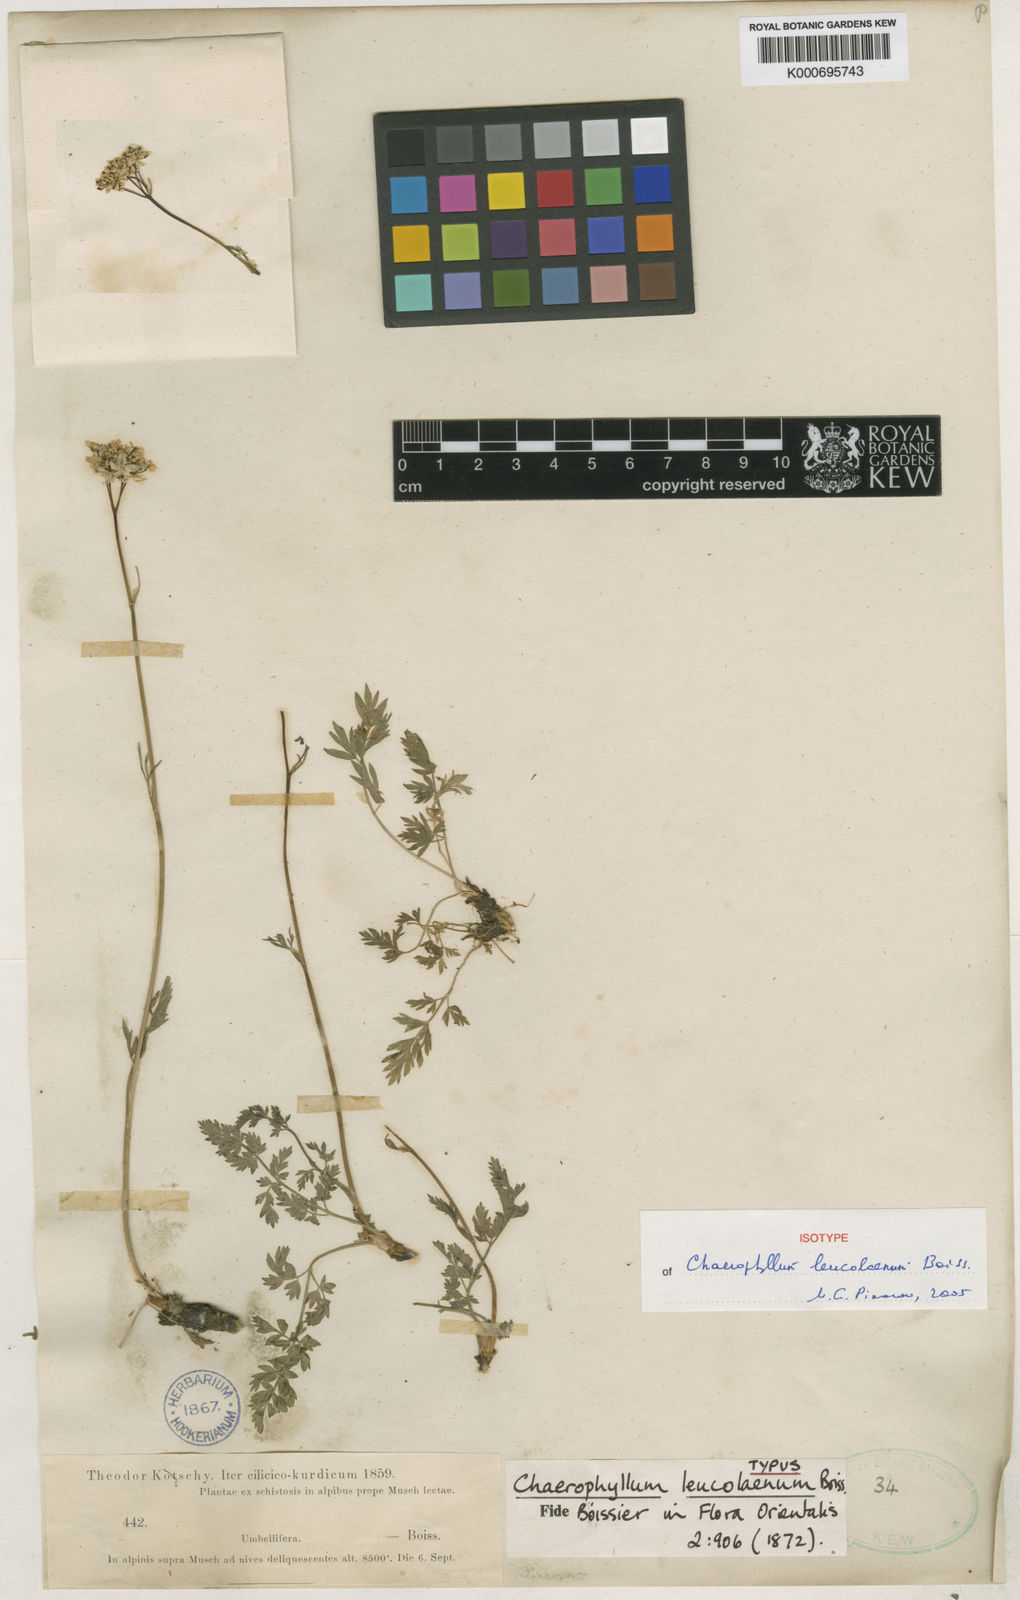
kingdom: Plantae
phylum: Tracheophyta
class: Magnoliopsida
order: Apiales
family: Apiaceae
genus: Chaerophyllum
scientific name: Chaerophyllum leucolaenum
